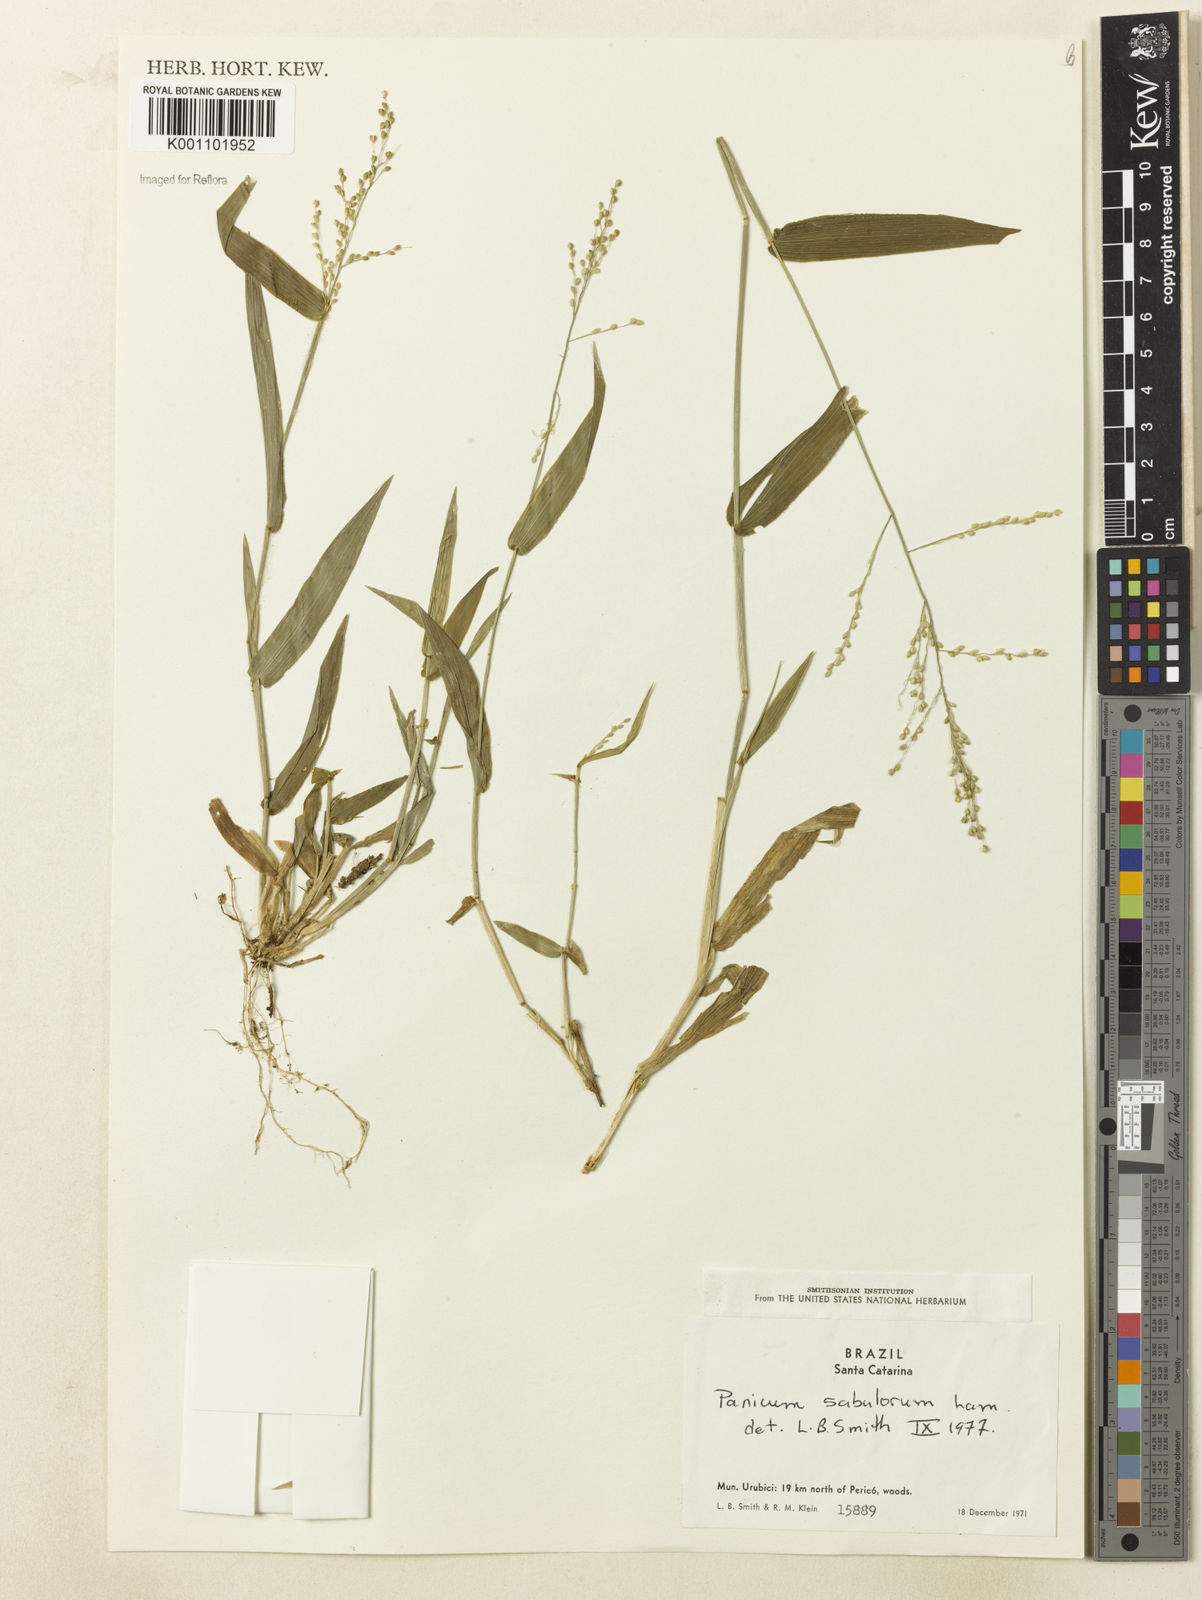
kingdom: Plantae
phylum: Tracheophyta
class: Liliopsida
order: Poales
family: Poaceae
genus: Dichanthelium
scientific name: Dichanthelium sabulorum
